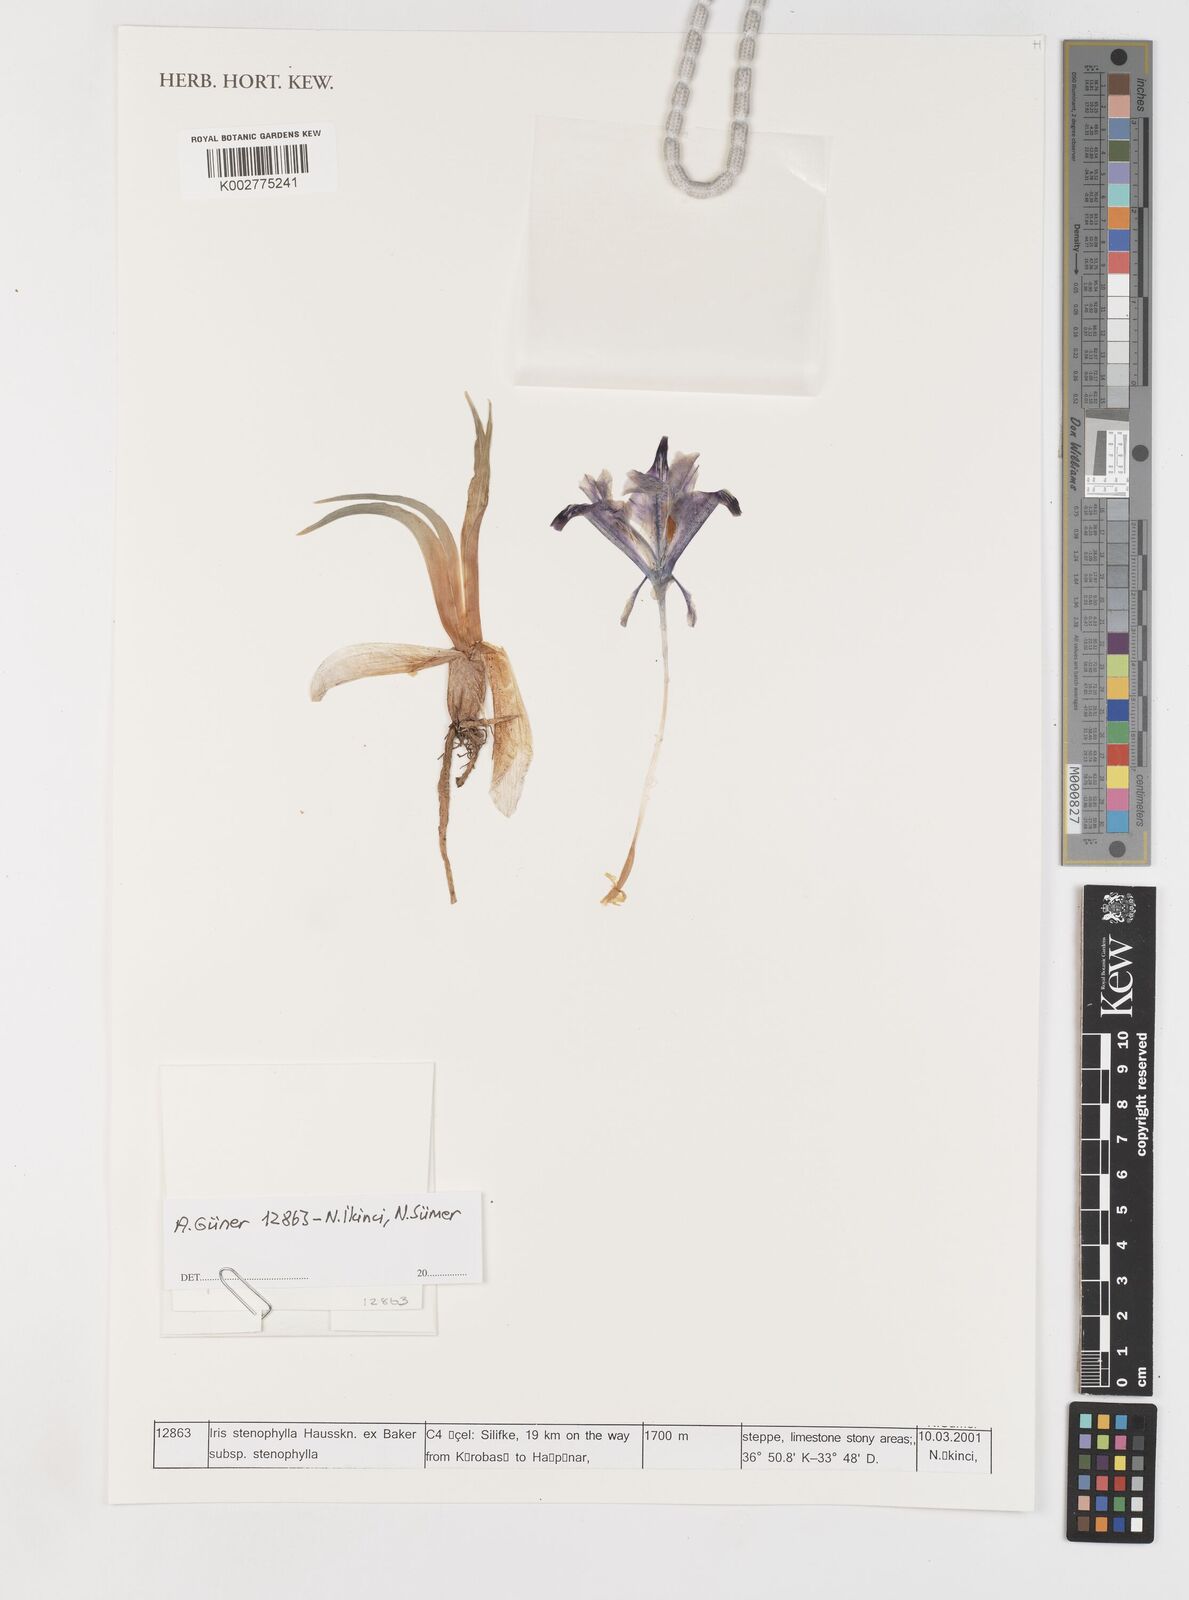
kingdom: Plantae
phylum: Tracheophyta
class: Liliopsida
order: Asparagales
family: Iridaceae
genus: Iris
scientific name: Iris stenophylla
